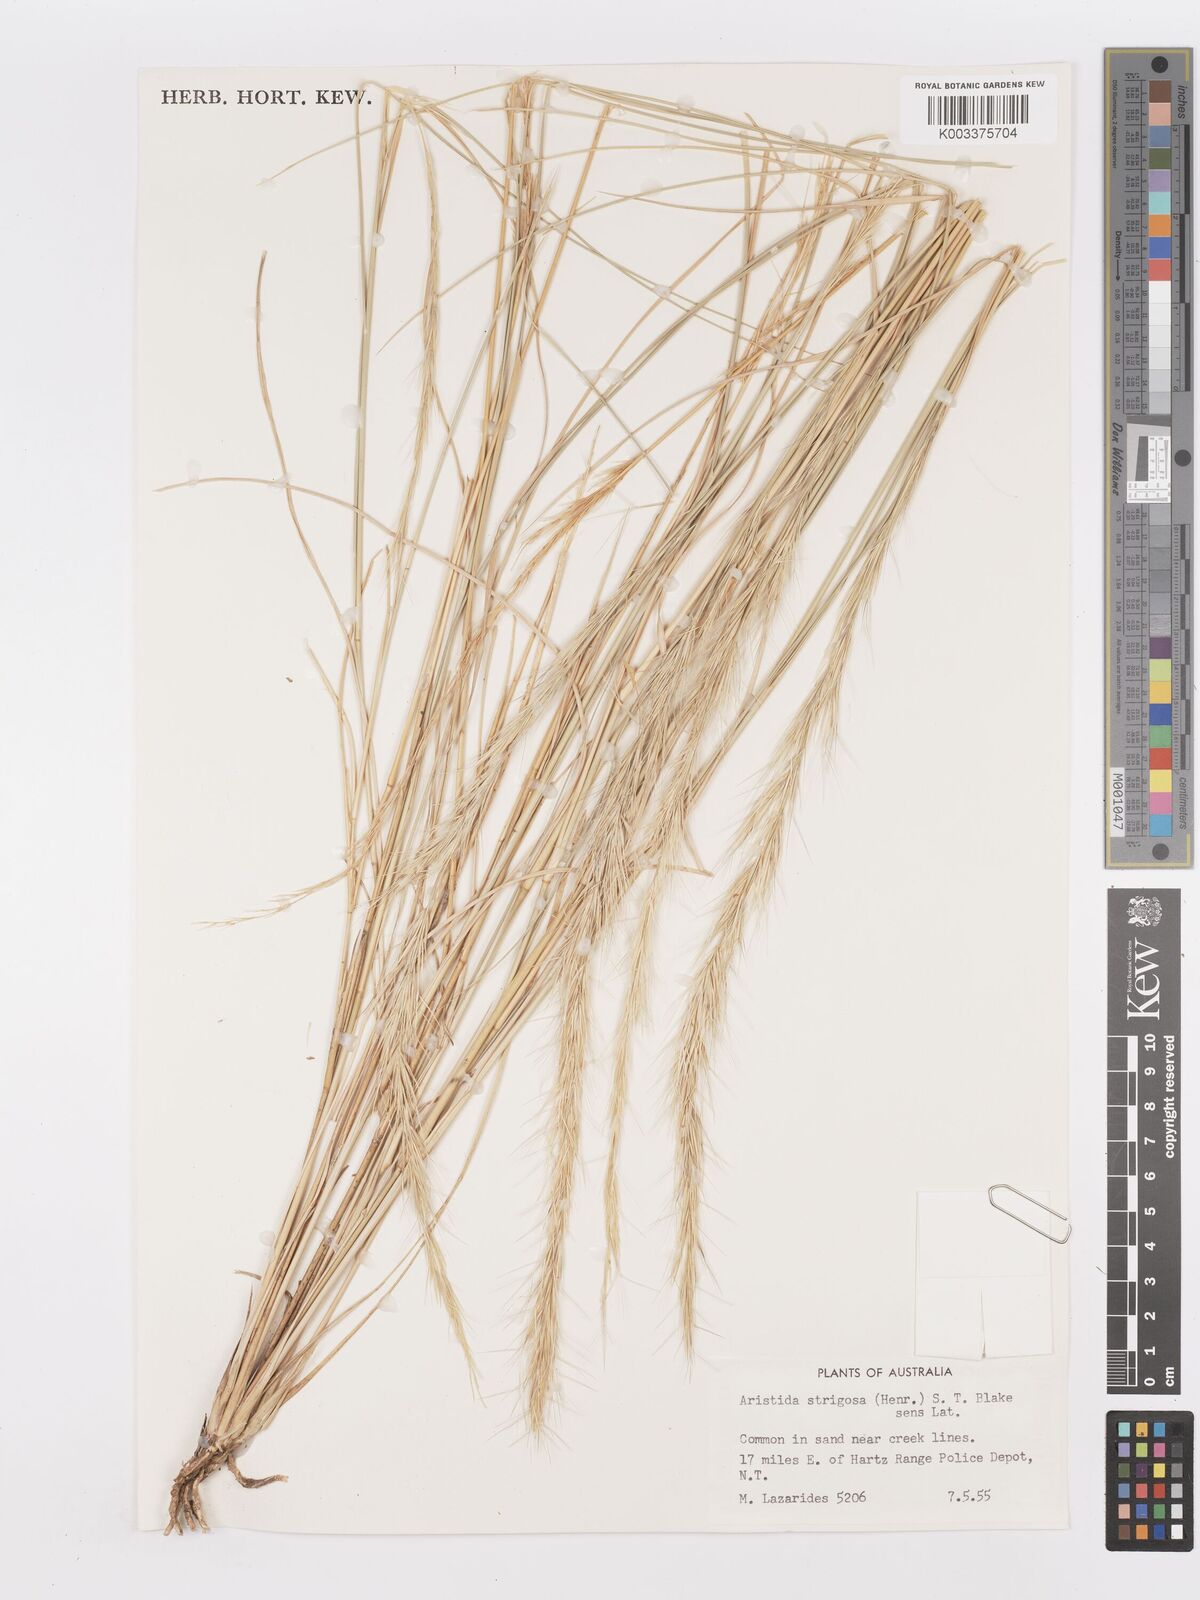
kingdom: Plantae
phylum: Tracheophyta
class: Liliopsida
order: Poales
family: Poaceae
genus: Aristida
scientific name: Aristida strigosa
